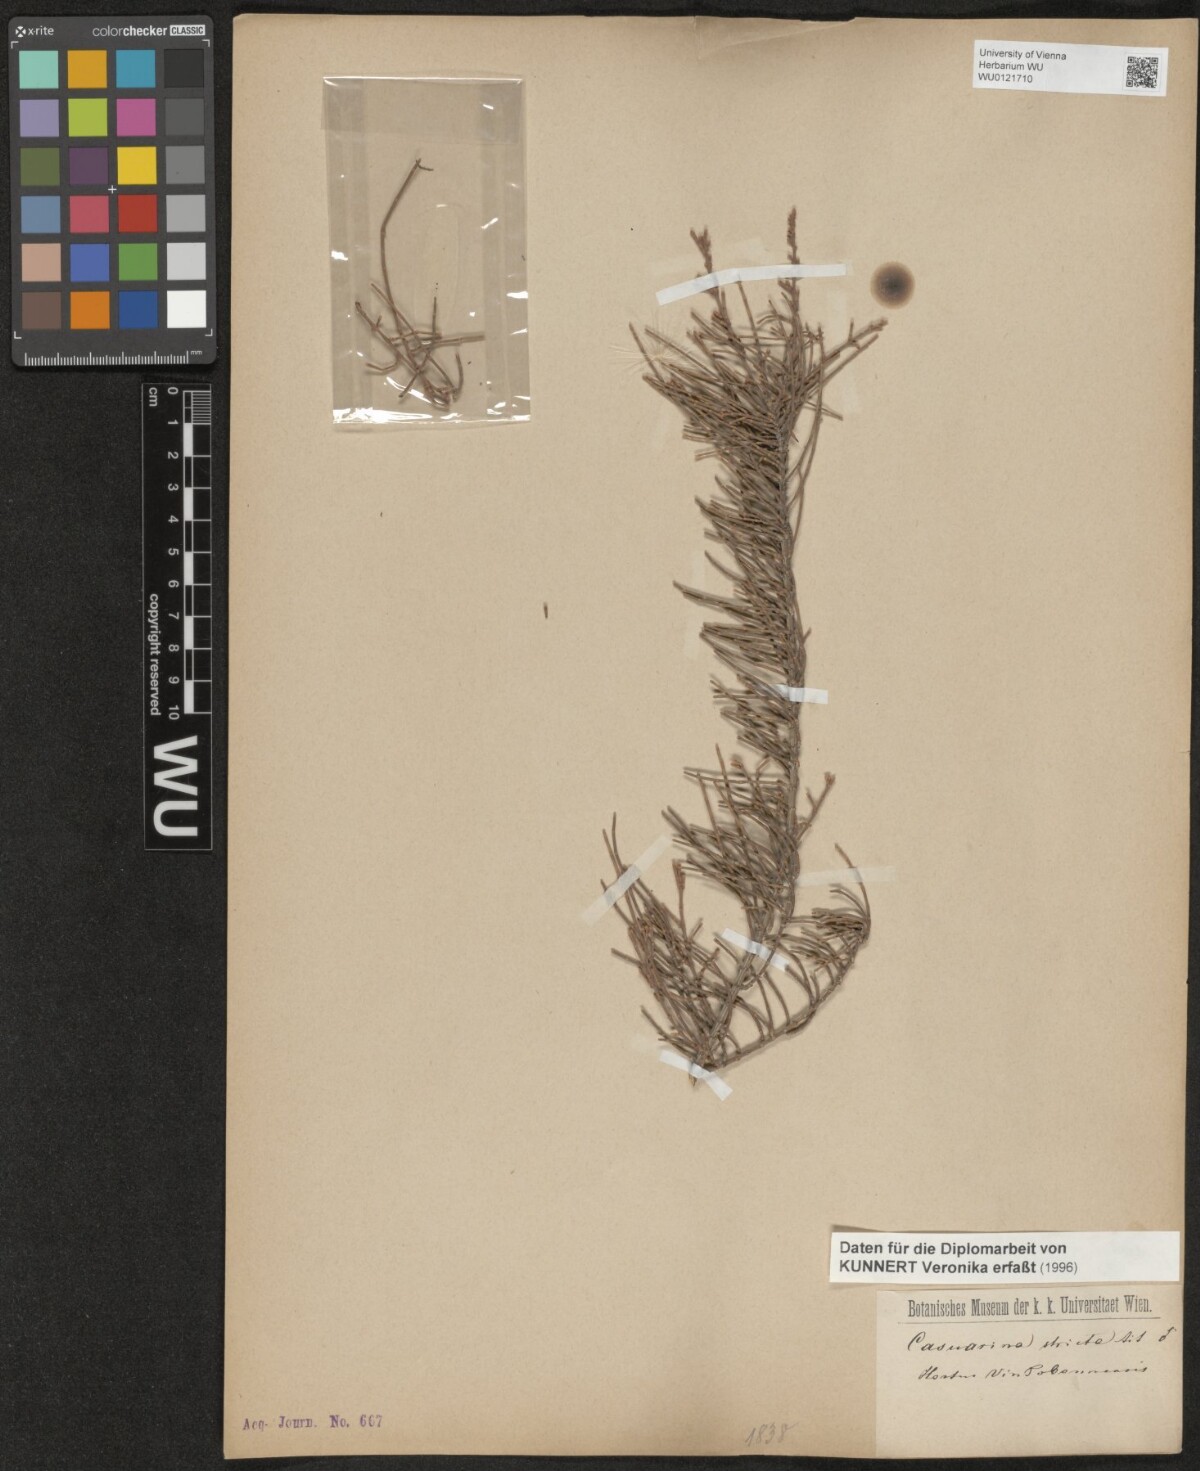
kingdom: Plantae
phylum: Tracheophyta
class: Magnoliopsida
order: Fagales
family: Casuarinaceae
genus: Casuarina
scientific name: Casuarina stricta
